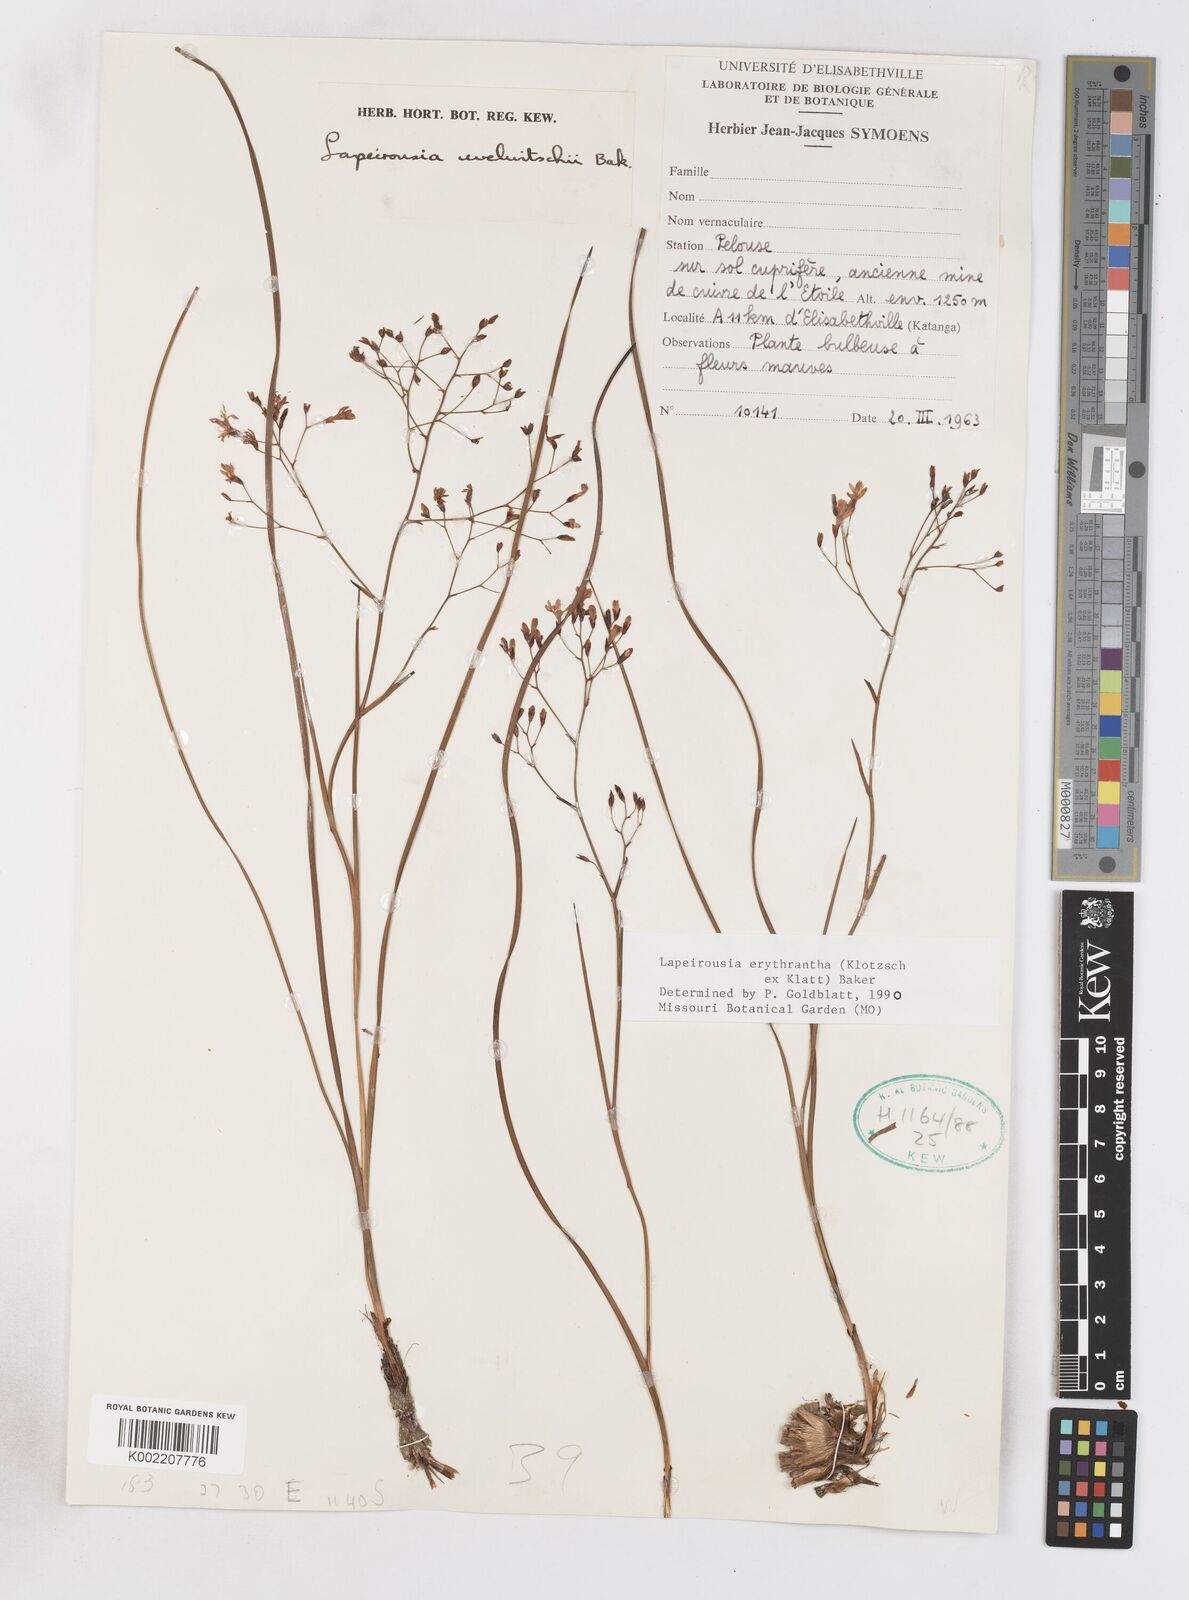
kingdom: Plantae
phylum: Tracheophyta
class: Liliopsida
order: Asparagales
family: Iridaceae
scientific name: Iridaceae
